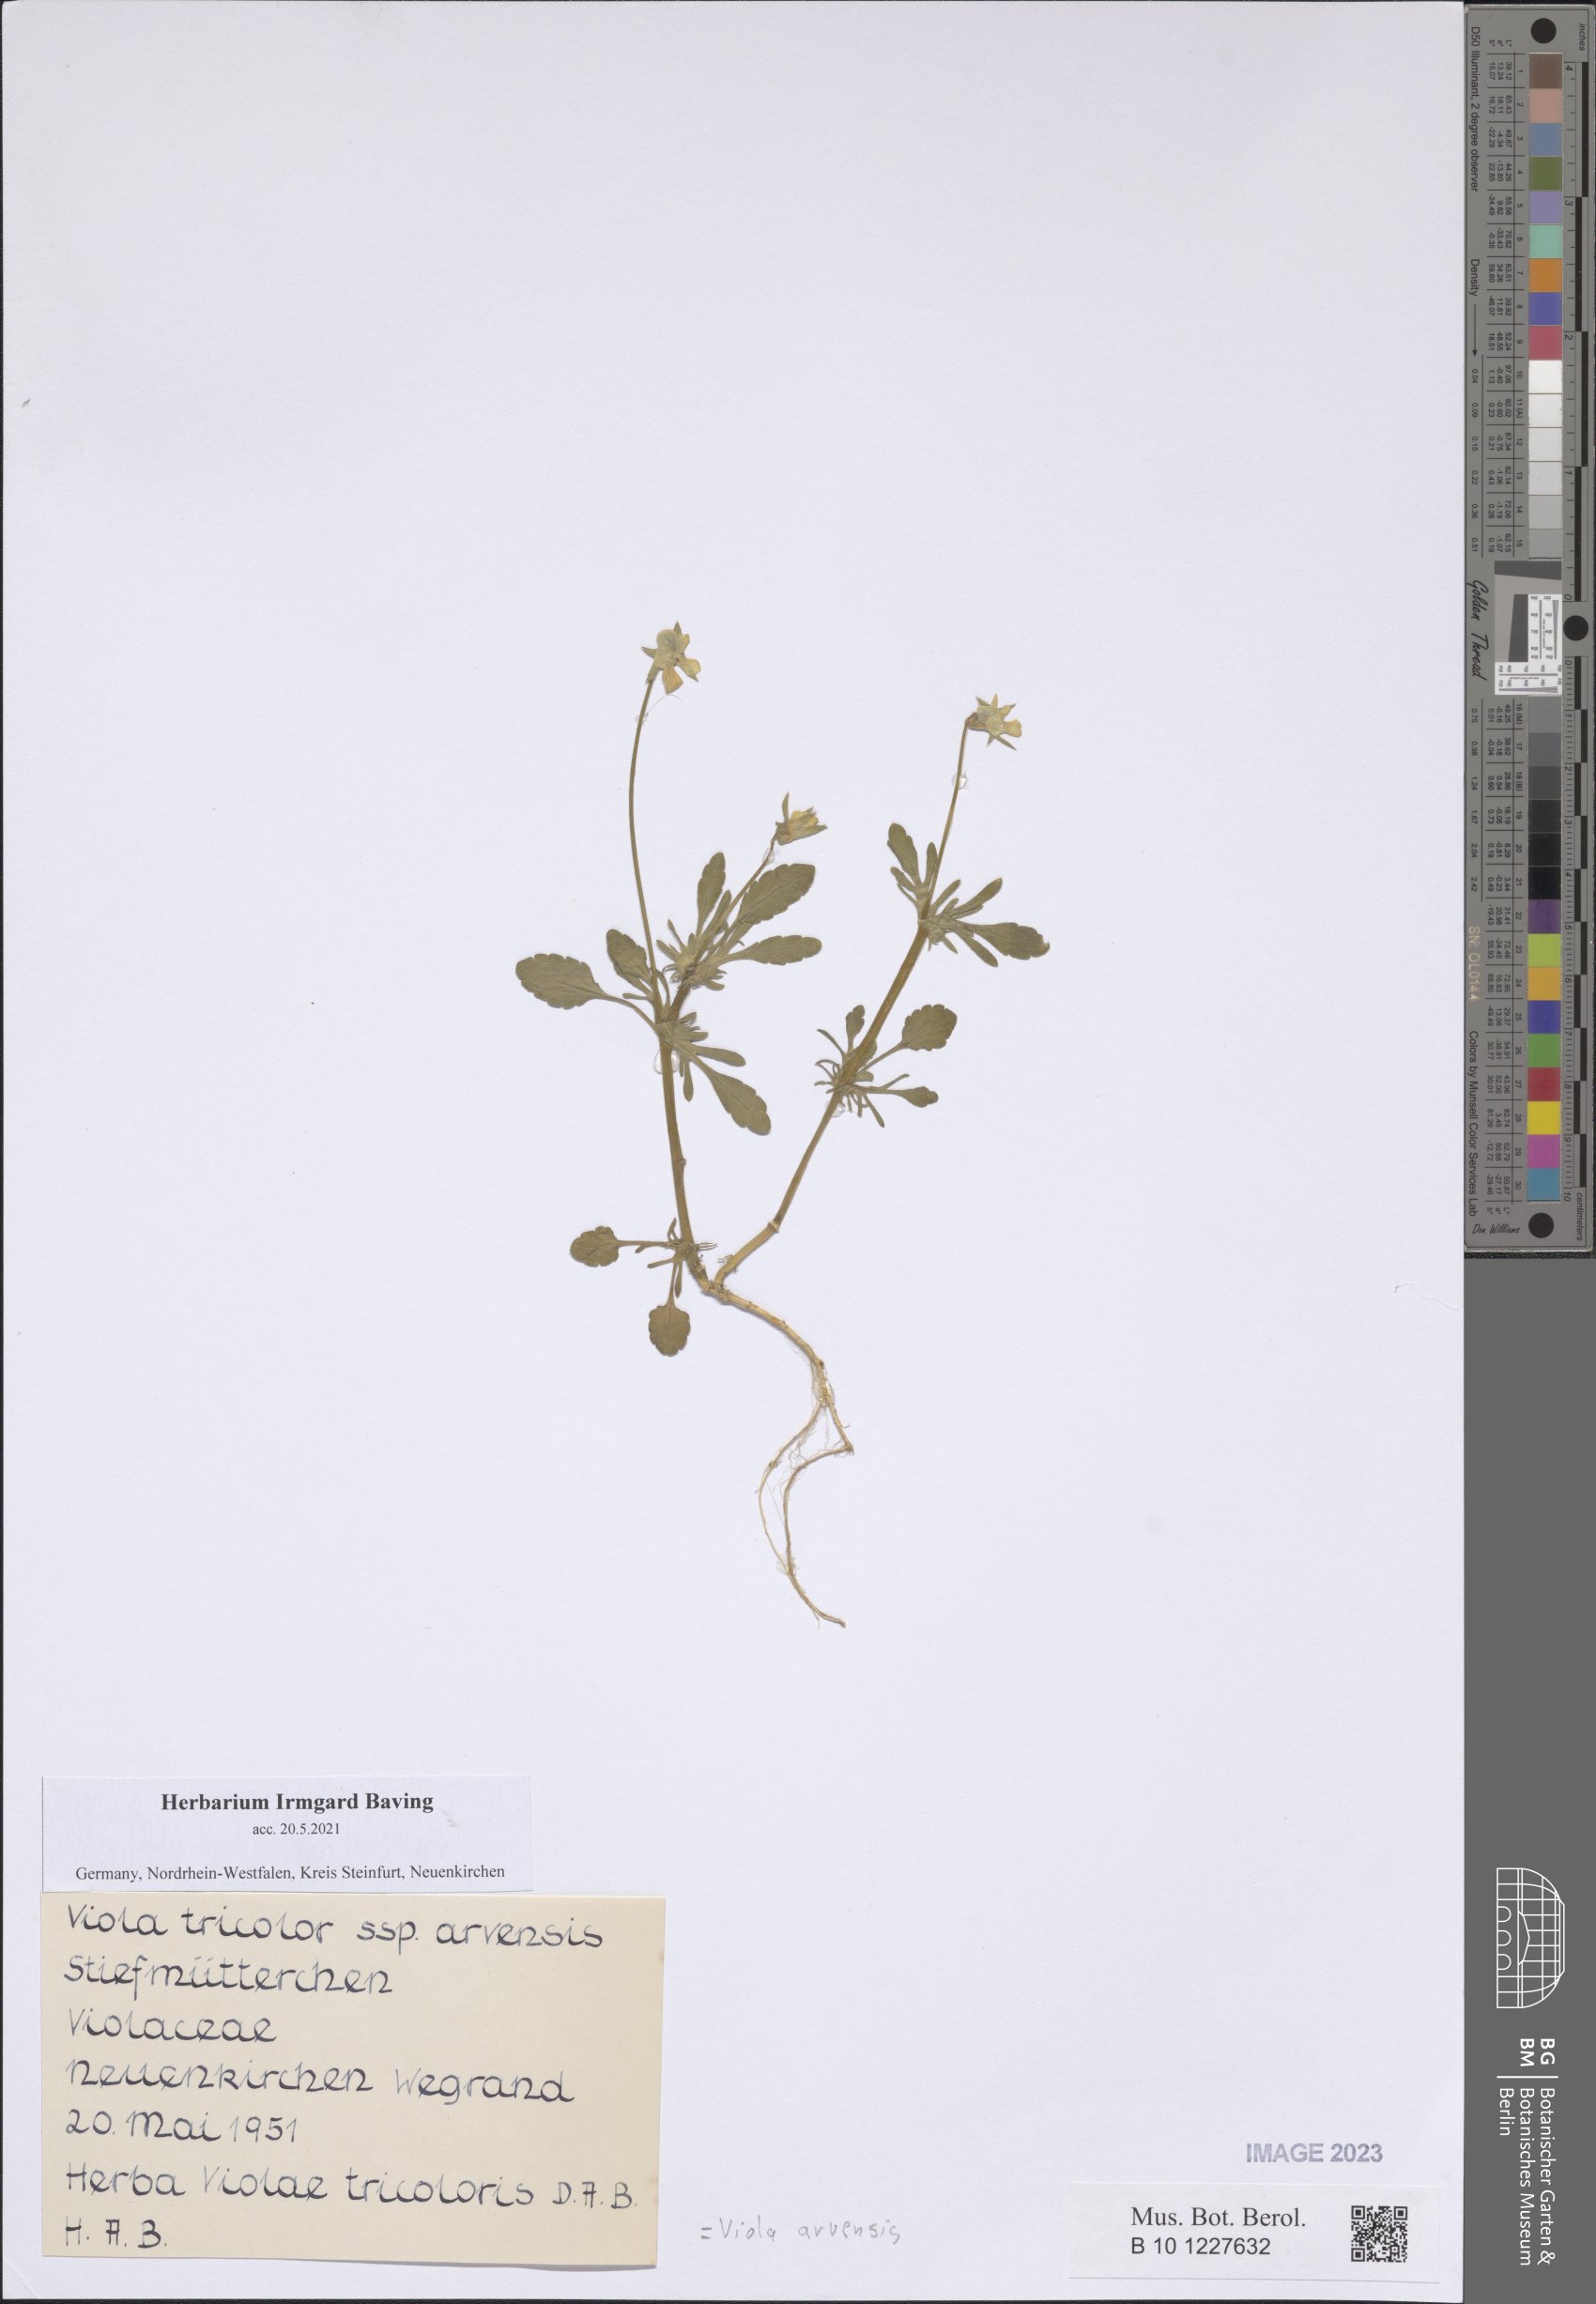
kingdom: Plantae
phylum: Tracheophyta
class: Magnoliopsida
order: Malpighiales
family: Violaceae
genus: Viola
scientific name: Viola arvensis
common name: Field pansy
